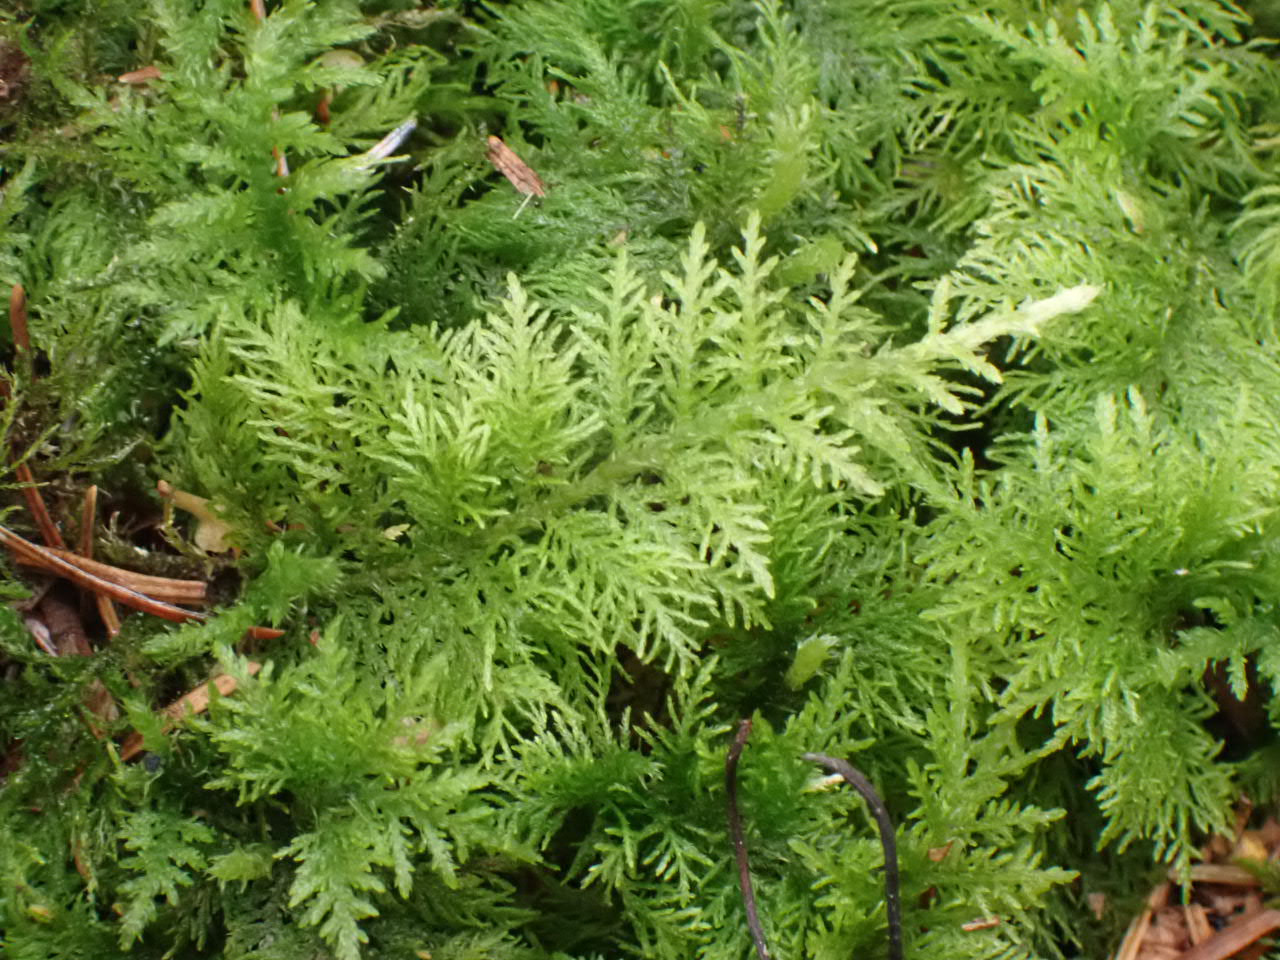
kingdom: Plantae
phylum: Bryophyta
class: Bryopsida
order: Hypnales
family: Thuidiaceae
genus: Thuidium
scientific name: Thuidium tamariscinum
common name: Pryd-bregnemos
